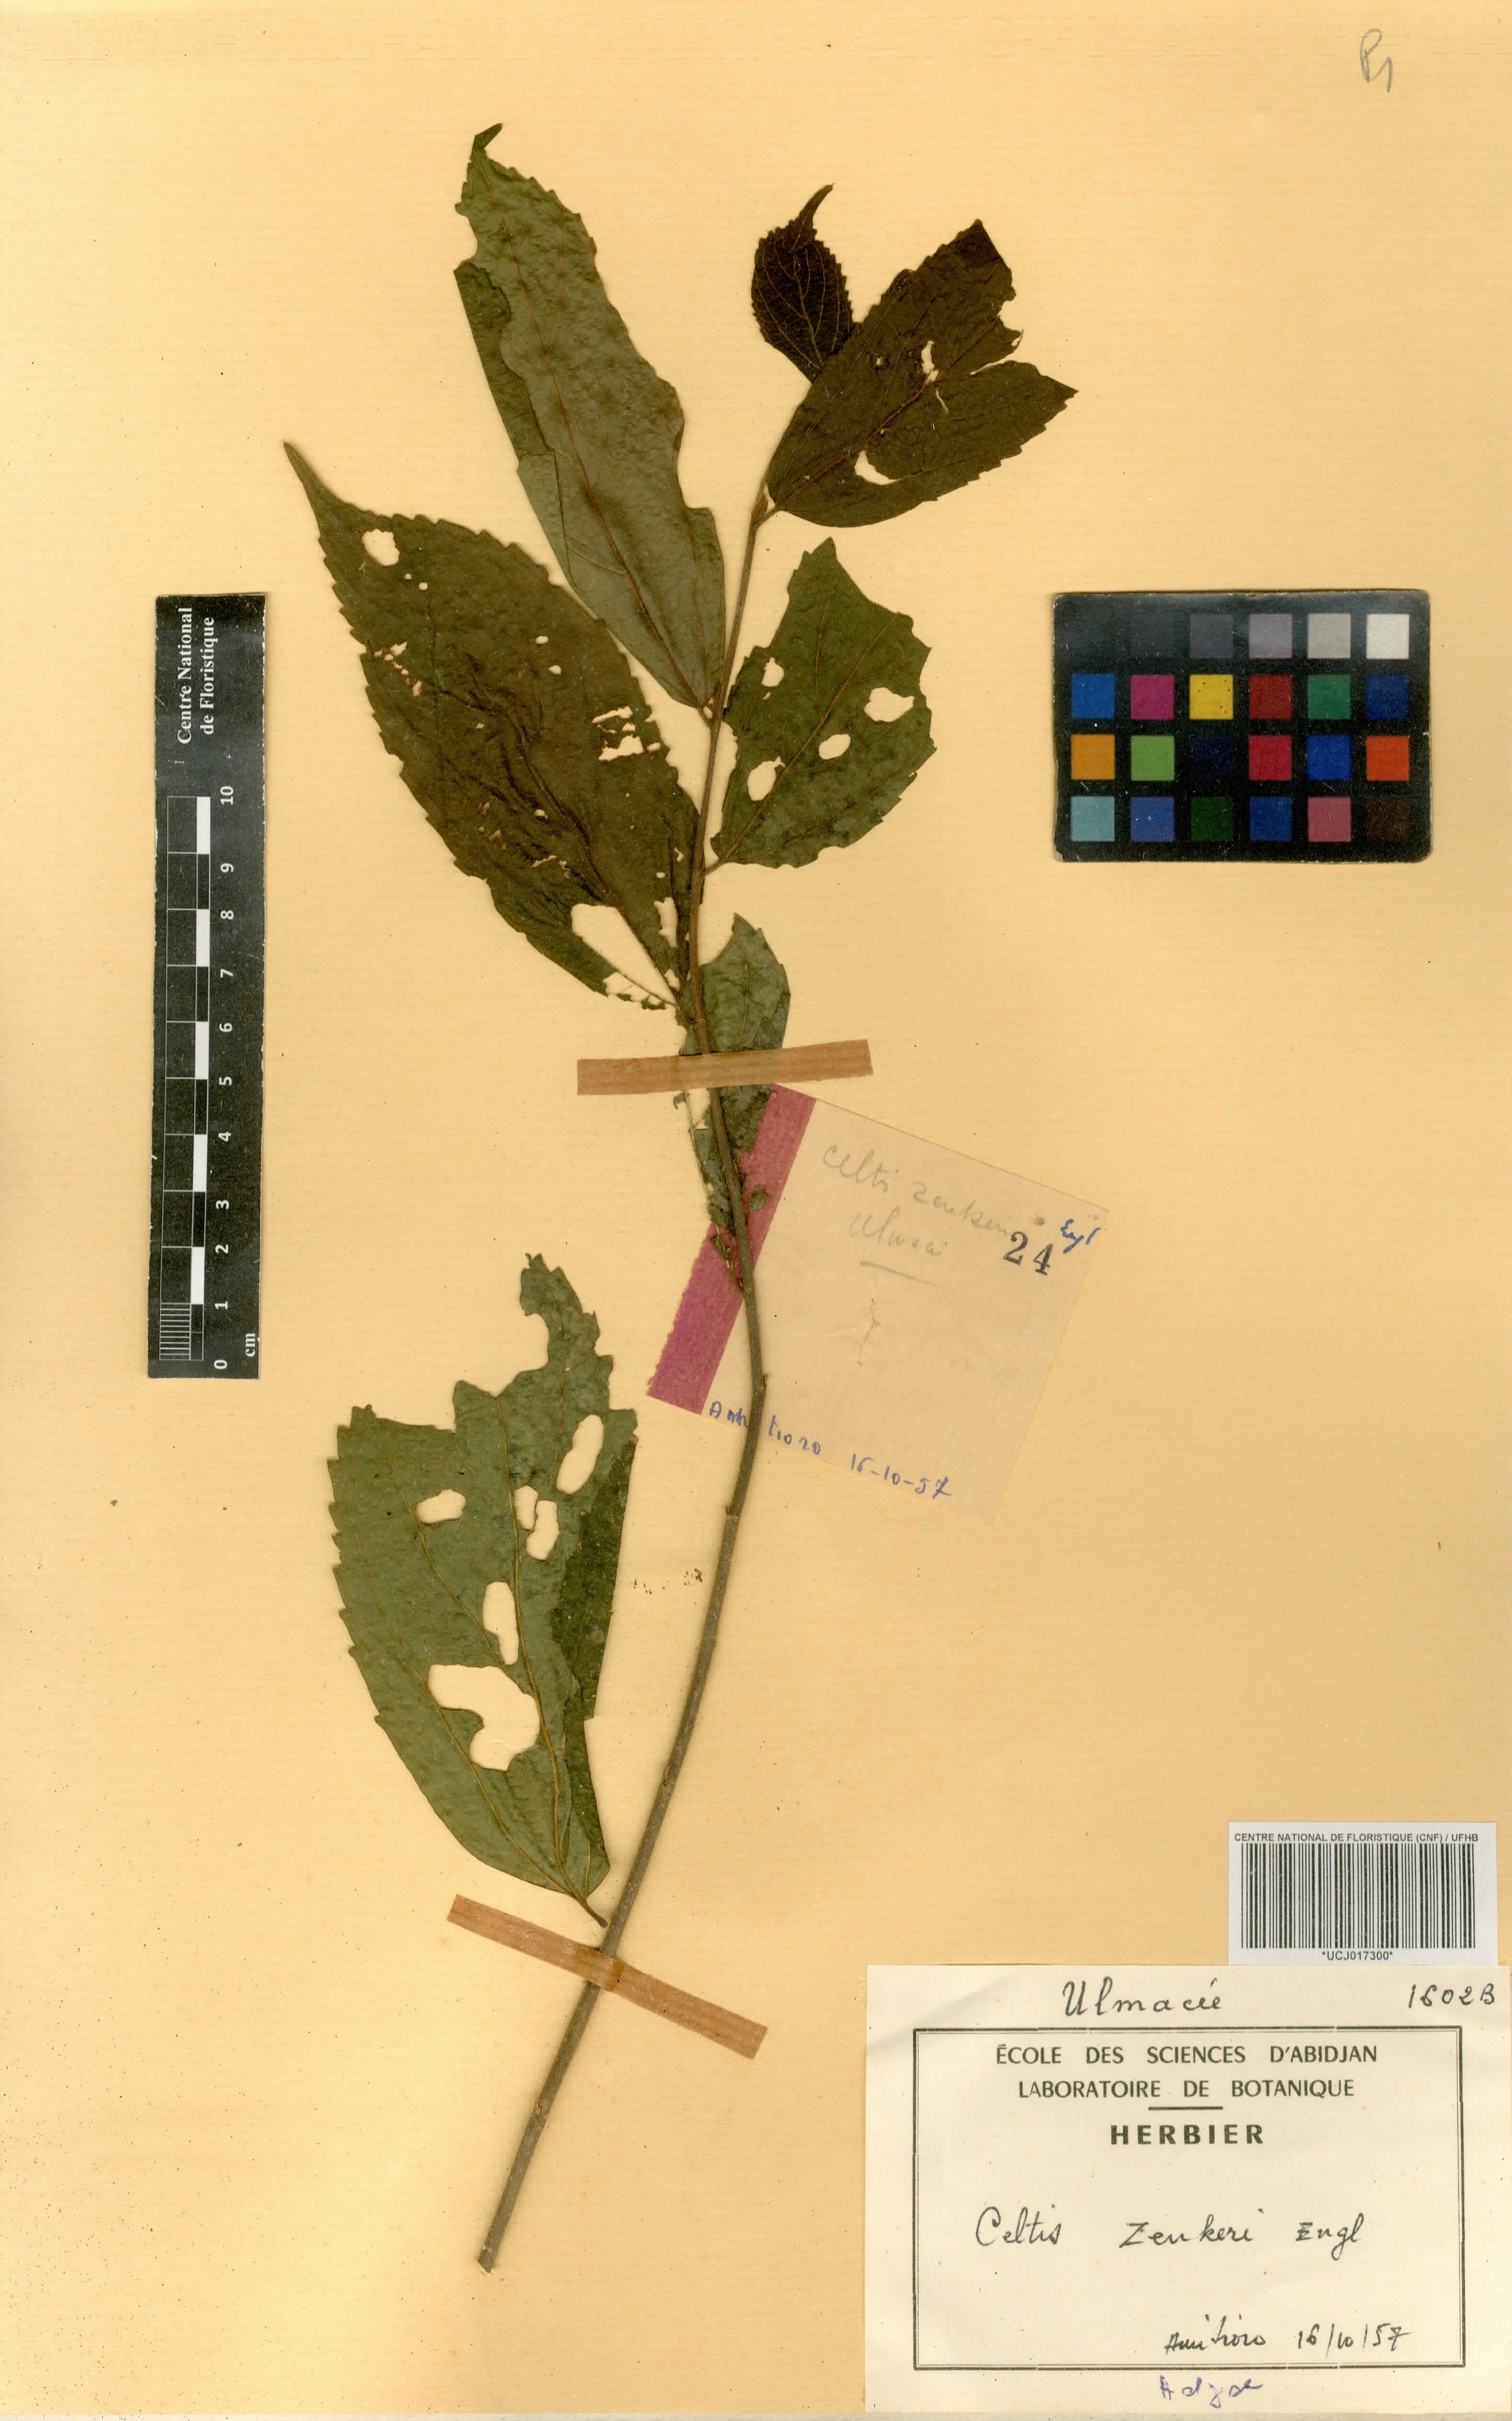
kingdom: Plantae
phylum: Tracheophyta
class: Magnoliopsida
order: Rosales
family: Cannabaceae
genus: Celtis
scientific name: Celtis zenkeri
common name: African celtis
